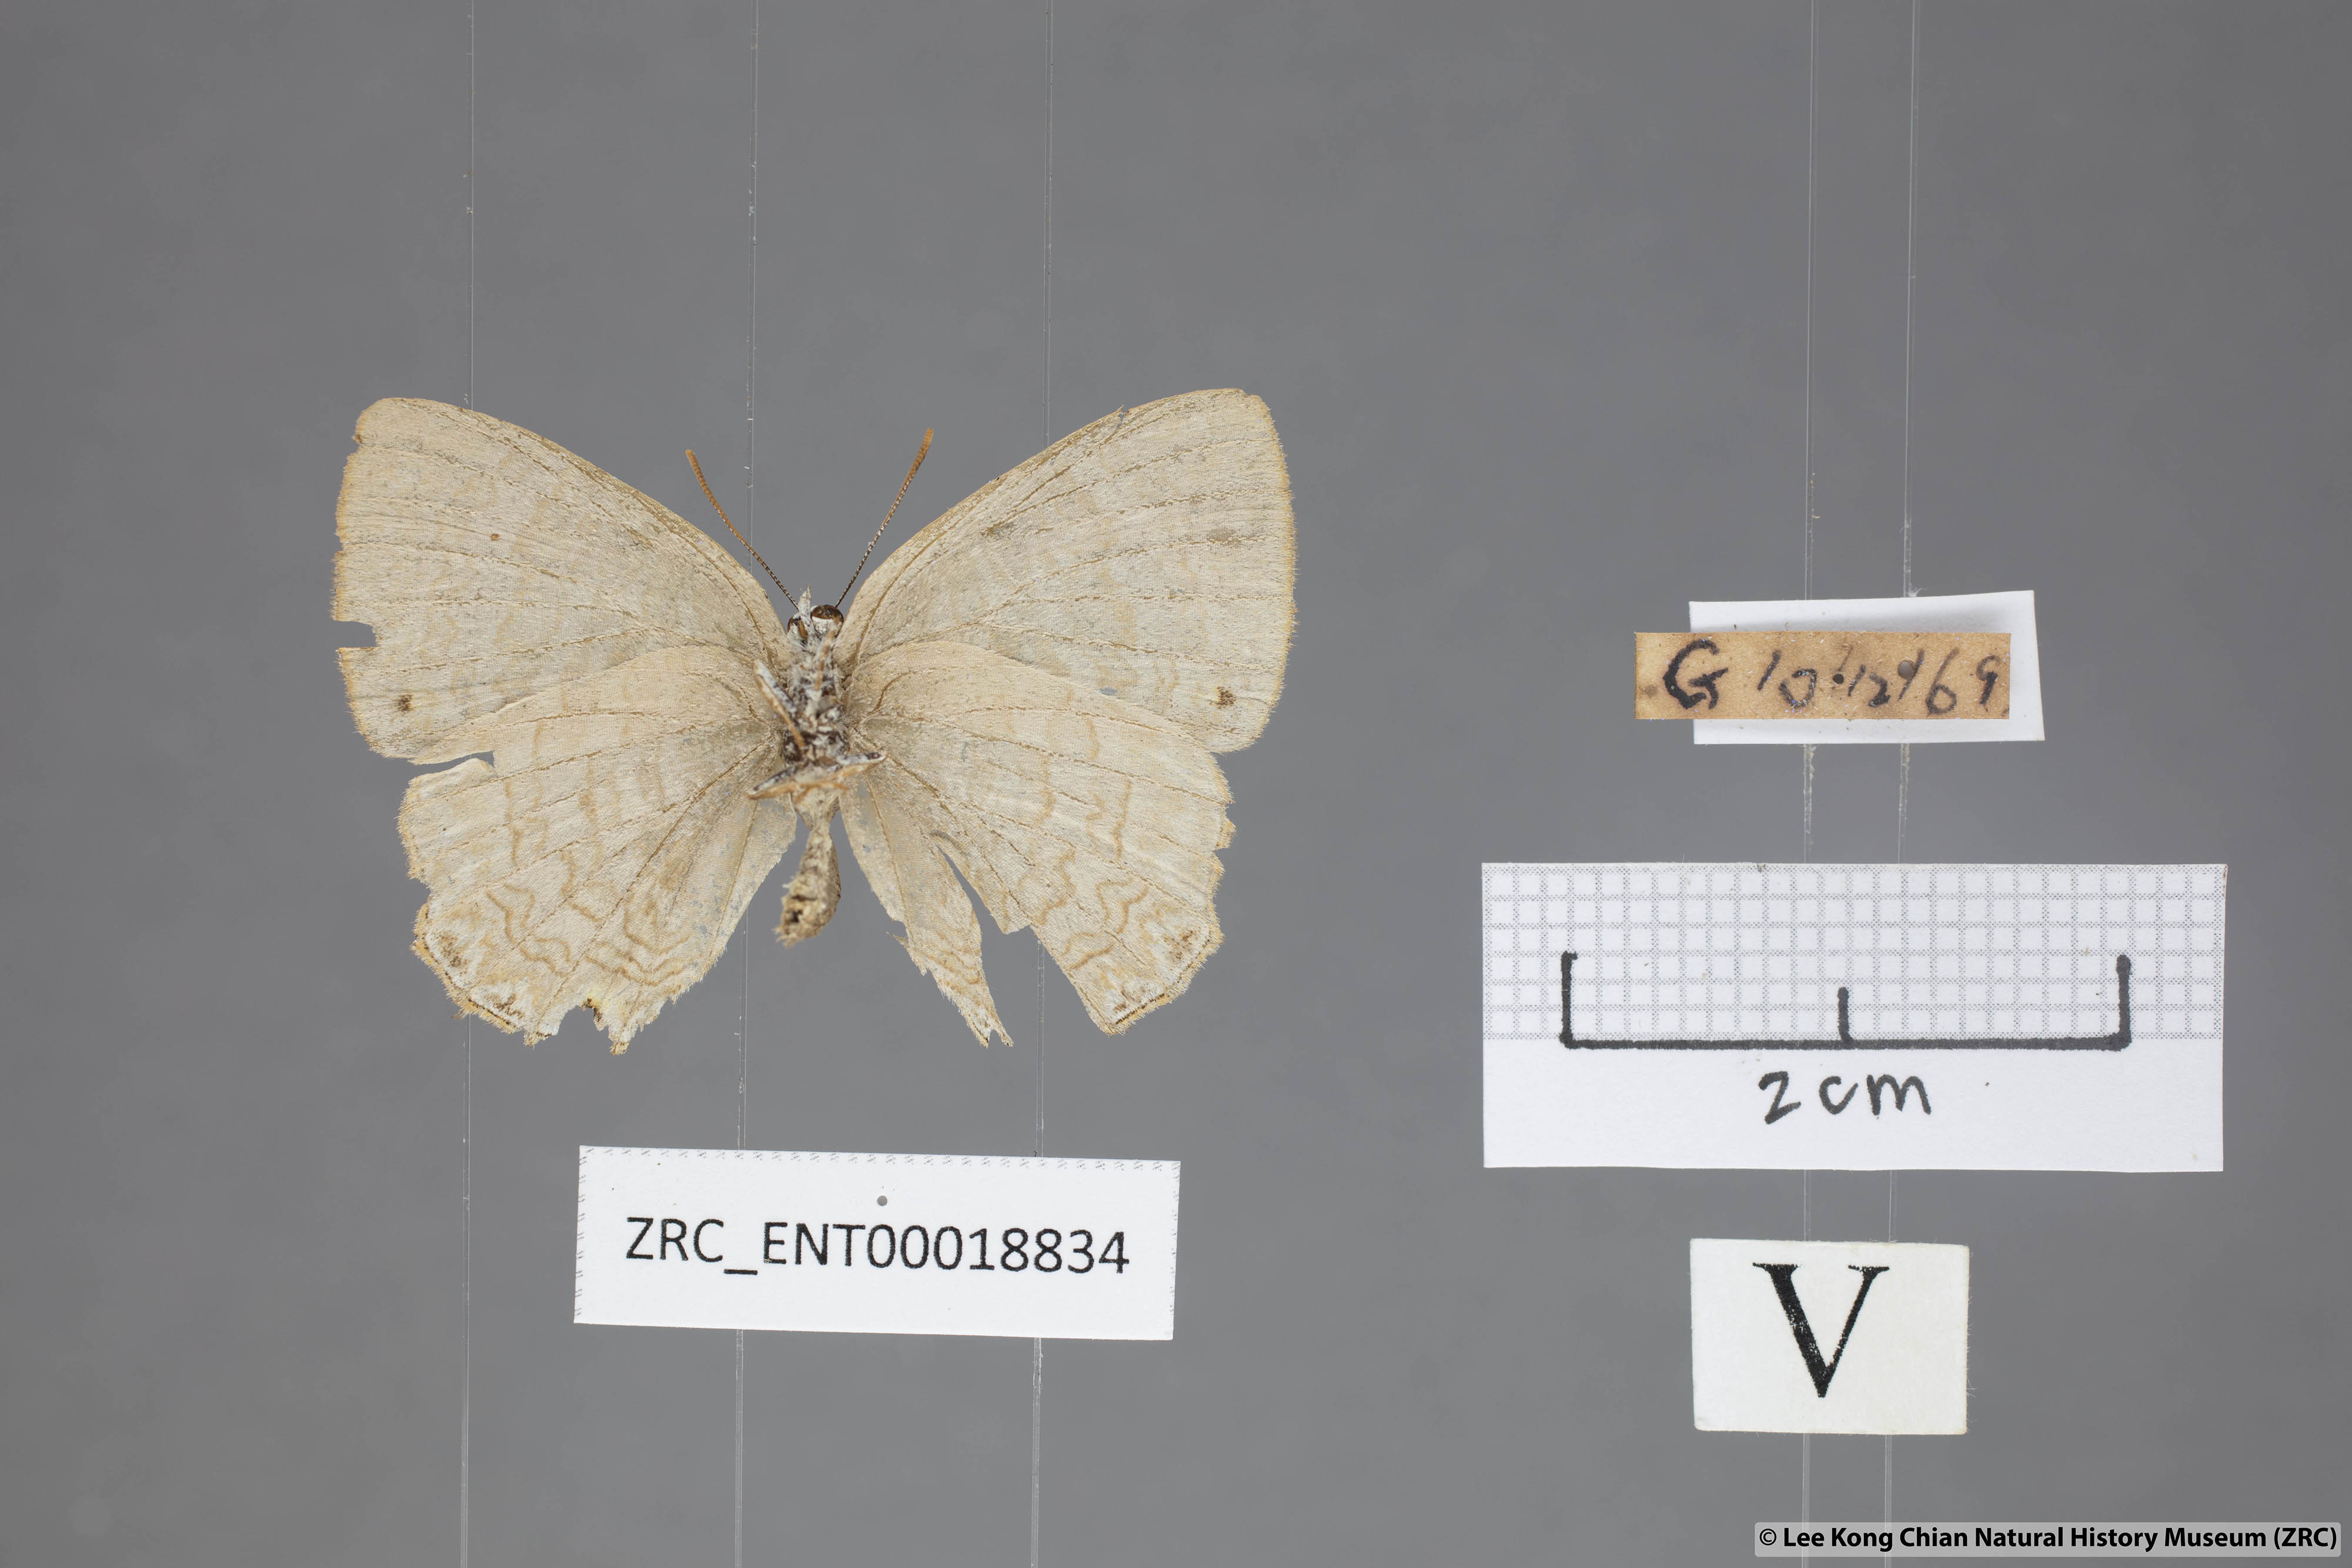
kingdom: Animalia
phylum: Arthropoda
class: Insecta
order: Lepidoptera
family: Lycaenidae
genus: Poritia
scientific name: Poritia promula
